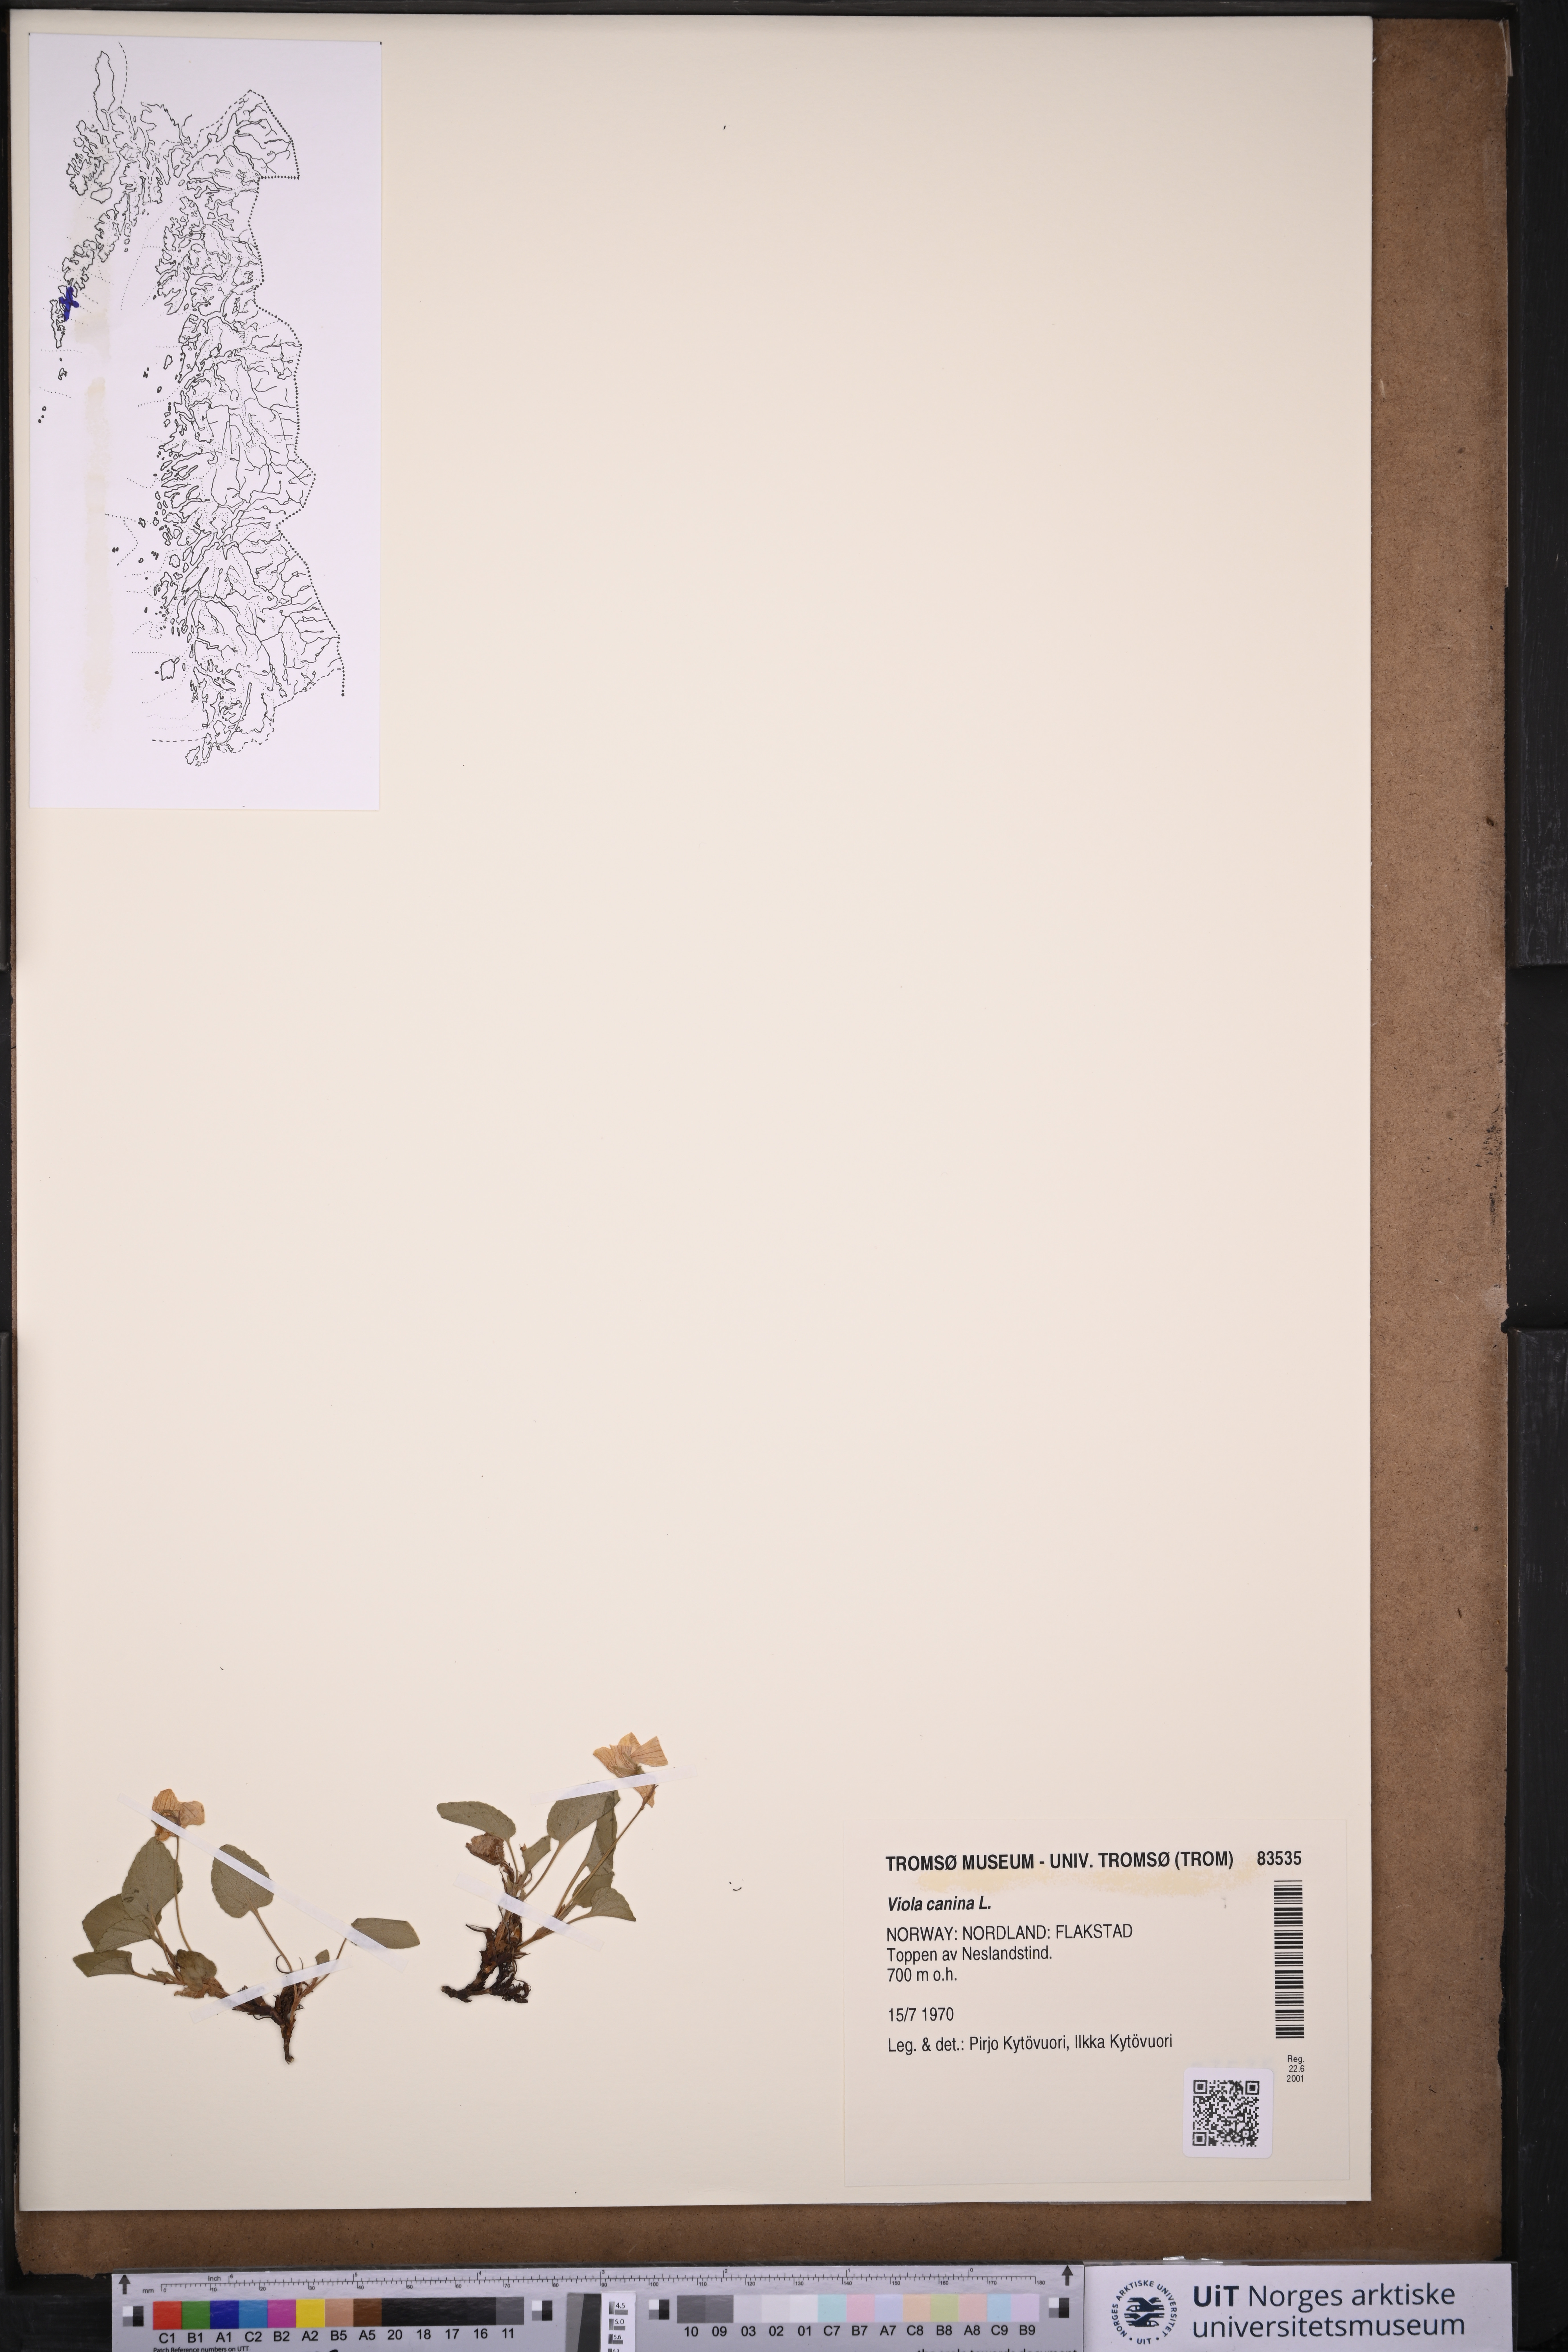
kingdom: Plantae
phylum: Tracheophyta
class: Magnoliopsida
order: Malpighiales
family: Violaceae
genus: Viola
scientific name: Viola canina
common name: Heath dog-violet
